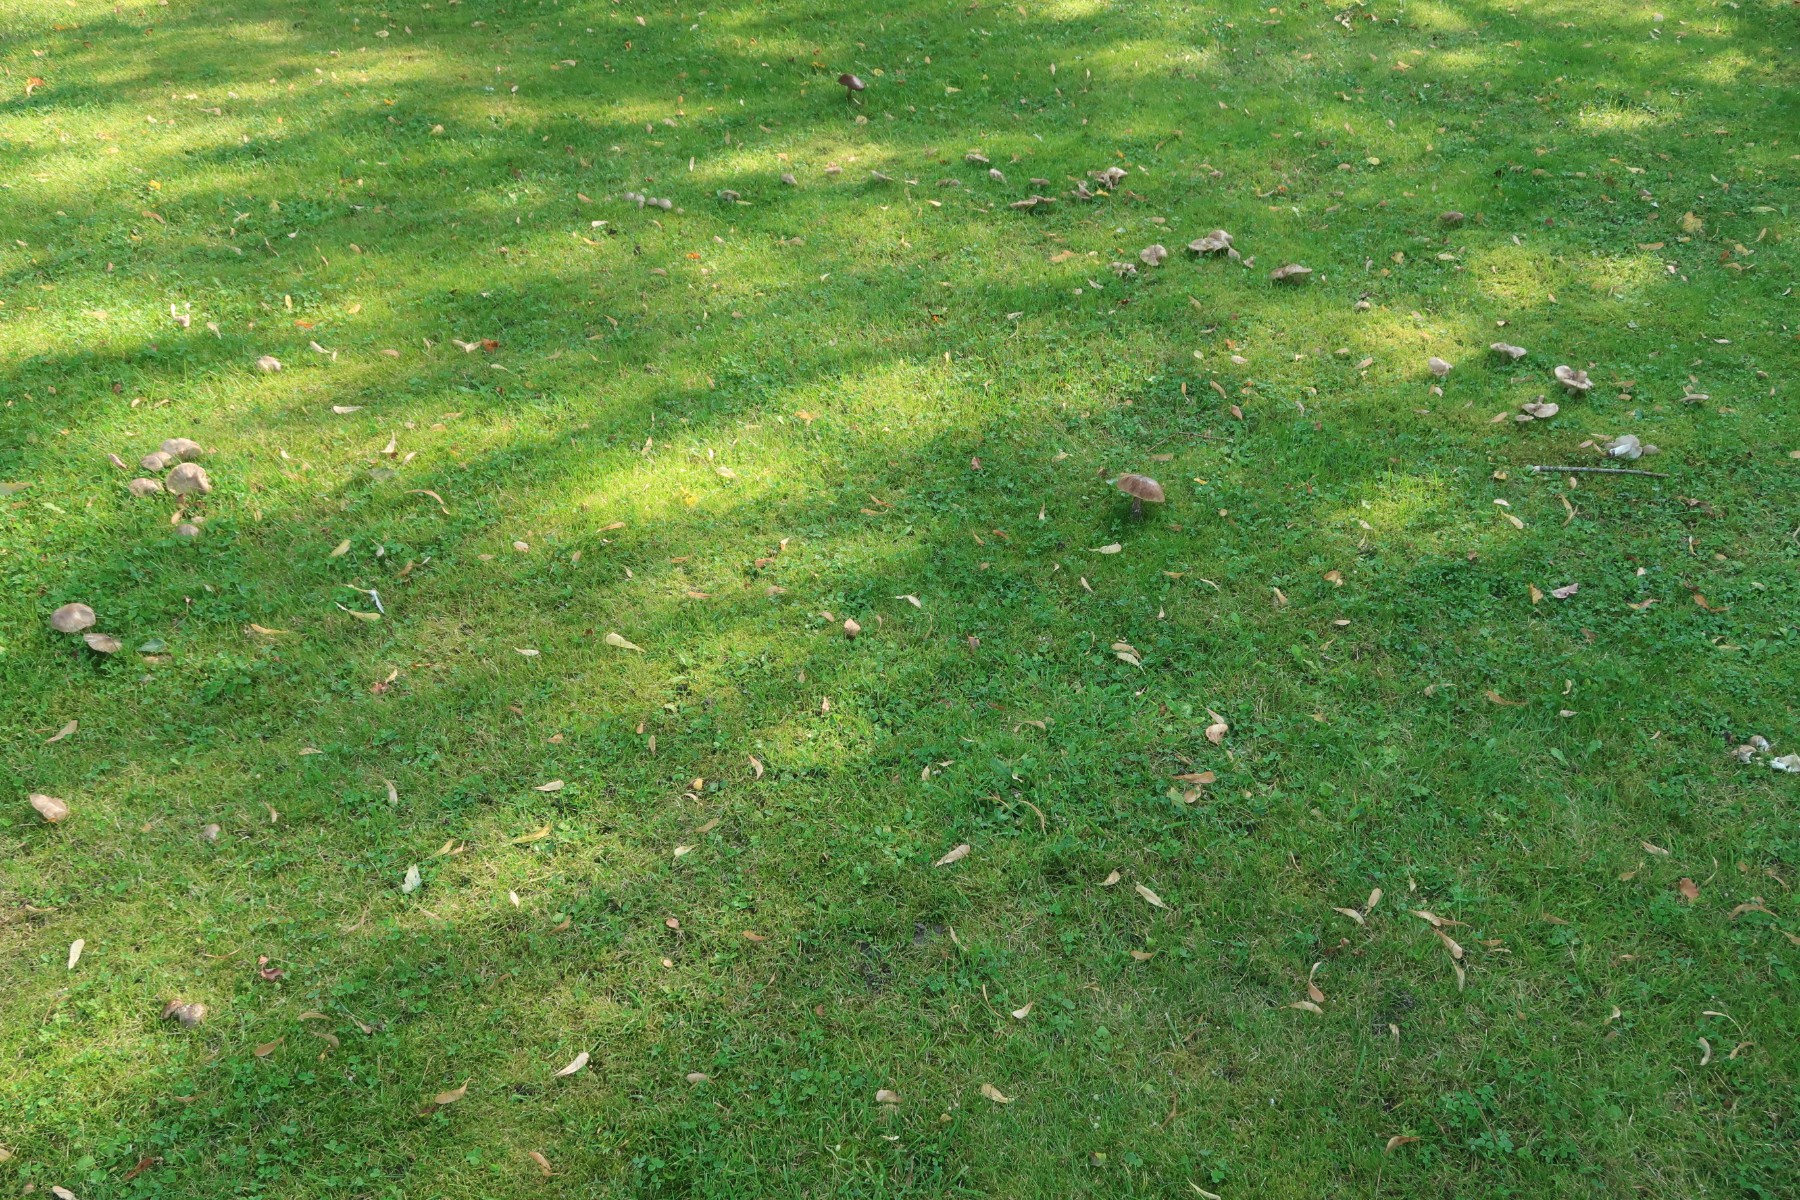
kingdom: Fungi
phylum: Basidiomycota
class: Agaricomycetes
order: Agaricales
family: Entolomataceae
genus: Entoloma
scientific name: Entoloma lividoalbum
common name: lysstokket rødblad
